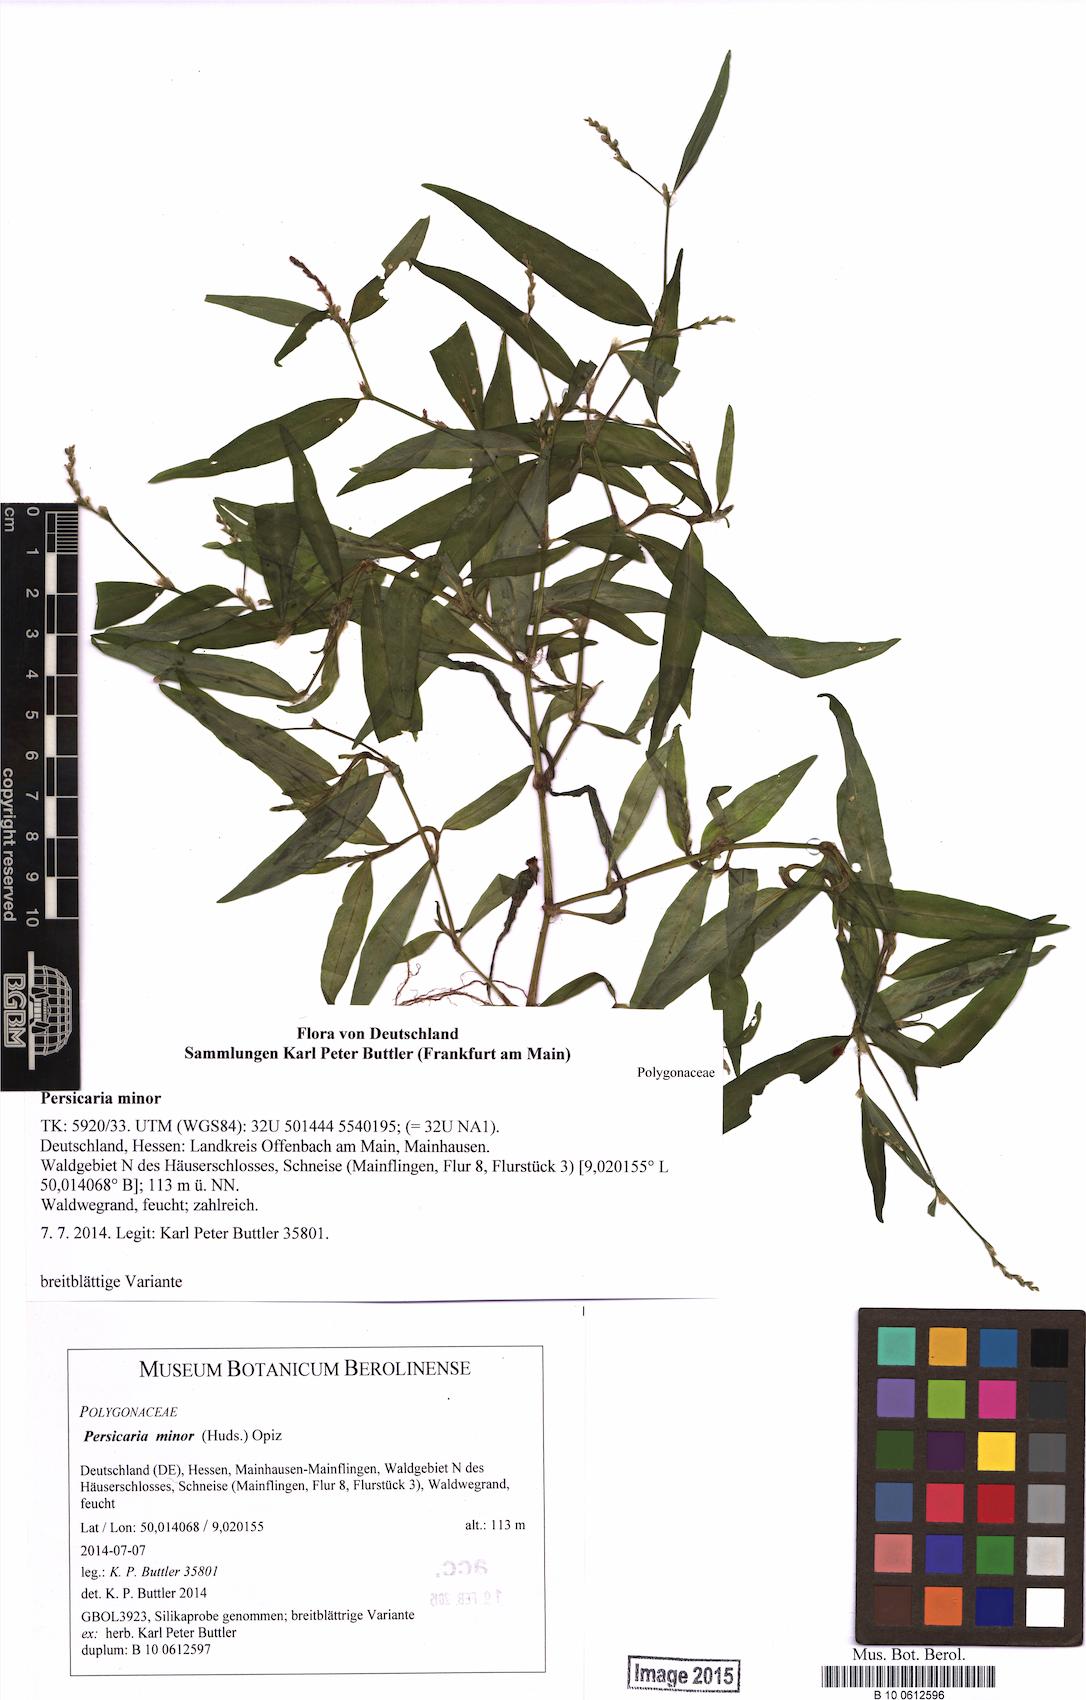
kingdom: Plantae
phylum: Tracheophyta
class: Magnoliopsida
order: Caryophyllales
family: Polygonaceae
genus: Persicaria
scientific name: Persicaria minor
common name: Small water-pepper
